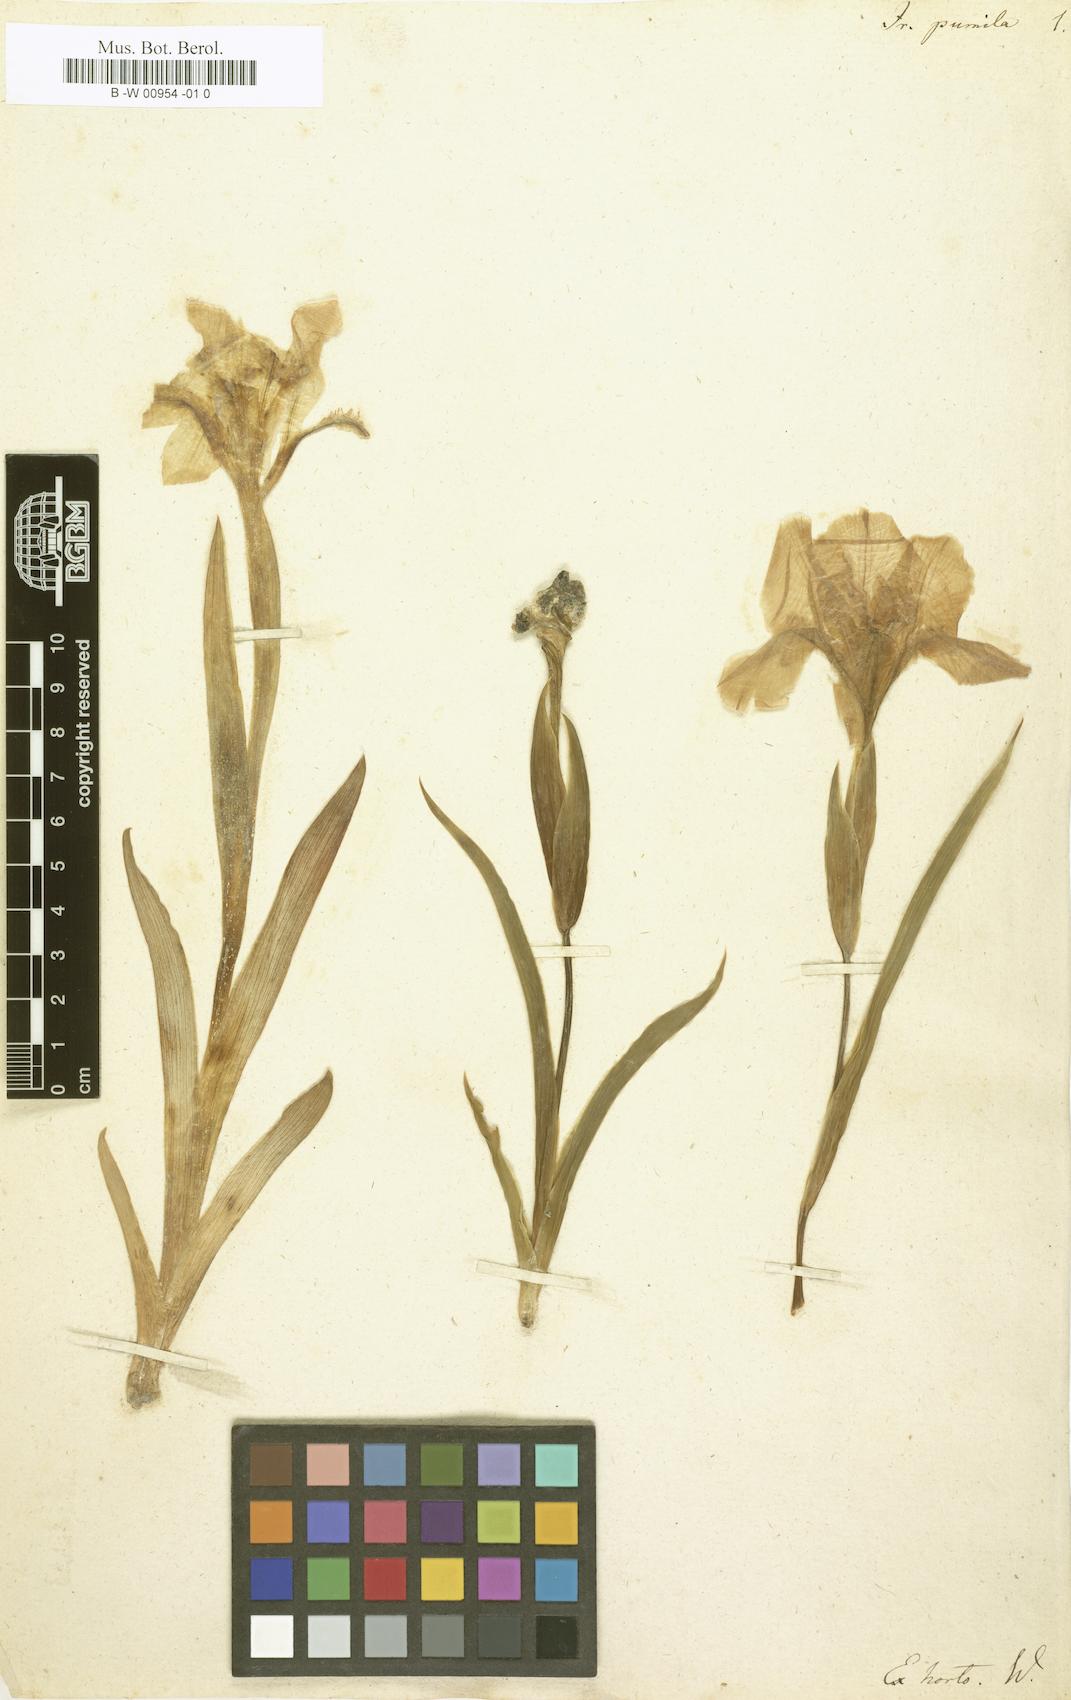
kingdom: Plantae
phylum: Tracheophyta
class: Liliopsida
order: Asparagales
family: Iridaceae
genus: Iris
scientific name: Iris pumila
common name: Dwarf iris
